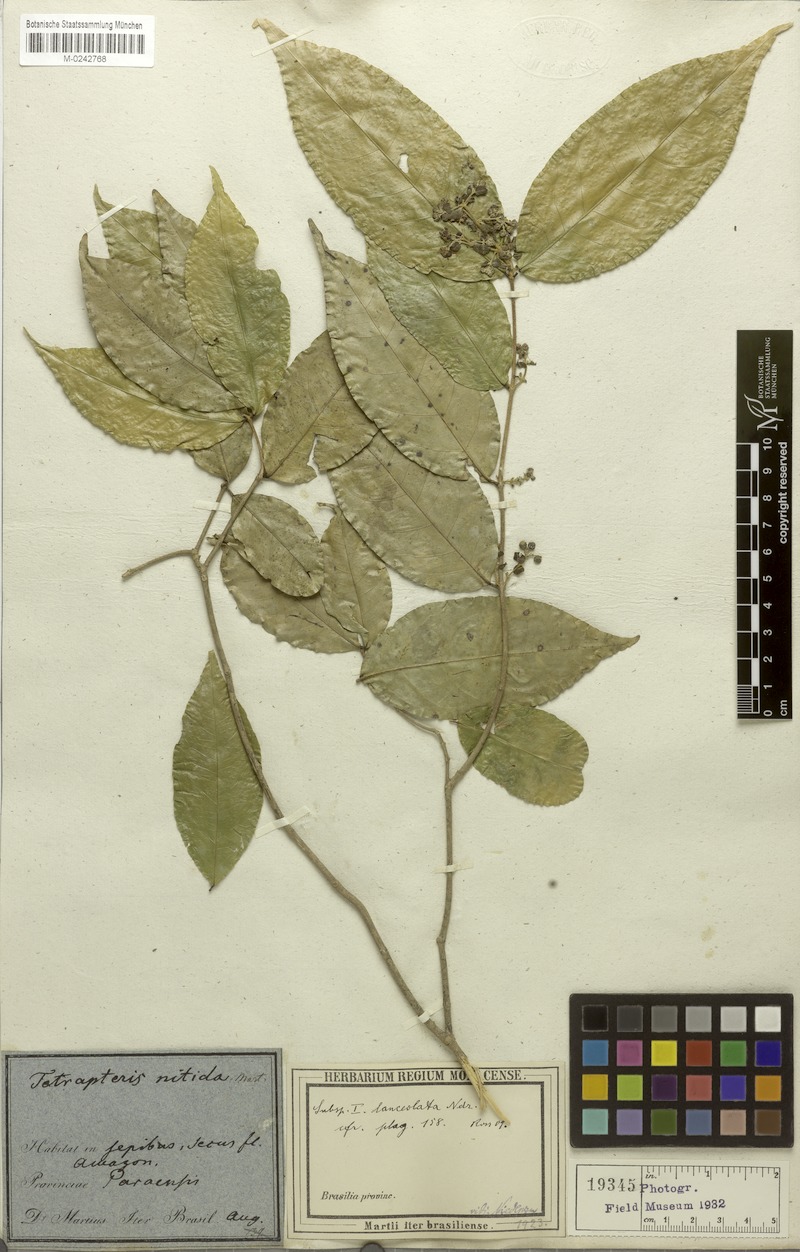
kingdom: Plantae
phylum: Tracheophyta
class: Magnoliopsida
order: Malpighiales
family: Malpighiaceae
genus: Tetrapterys
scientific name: Tetrapterys nitida
